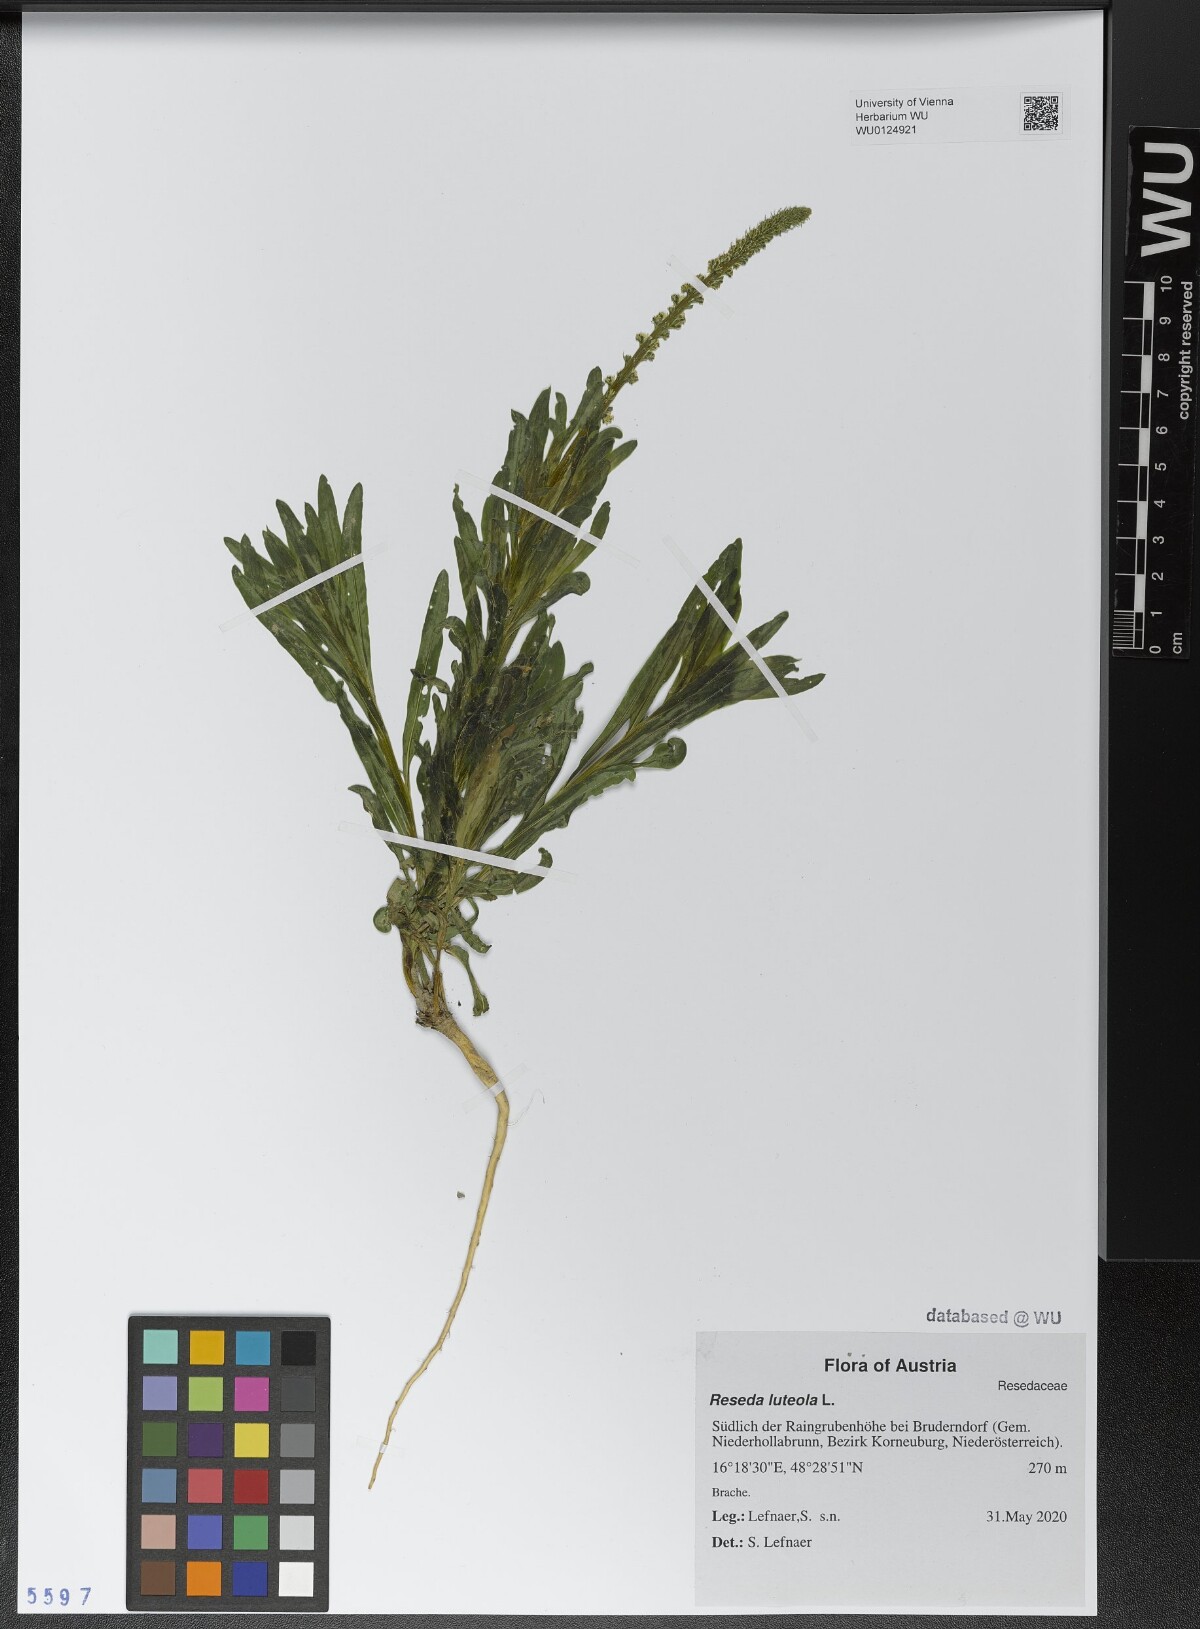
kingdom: Plantae
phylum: Tracheophyta
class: Magnoliopsida
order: Brassicales
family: Resedaceae
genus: Reseda
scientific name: Reseda luteola
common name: Weld
